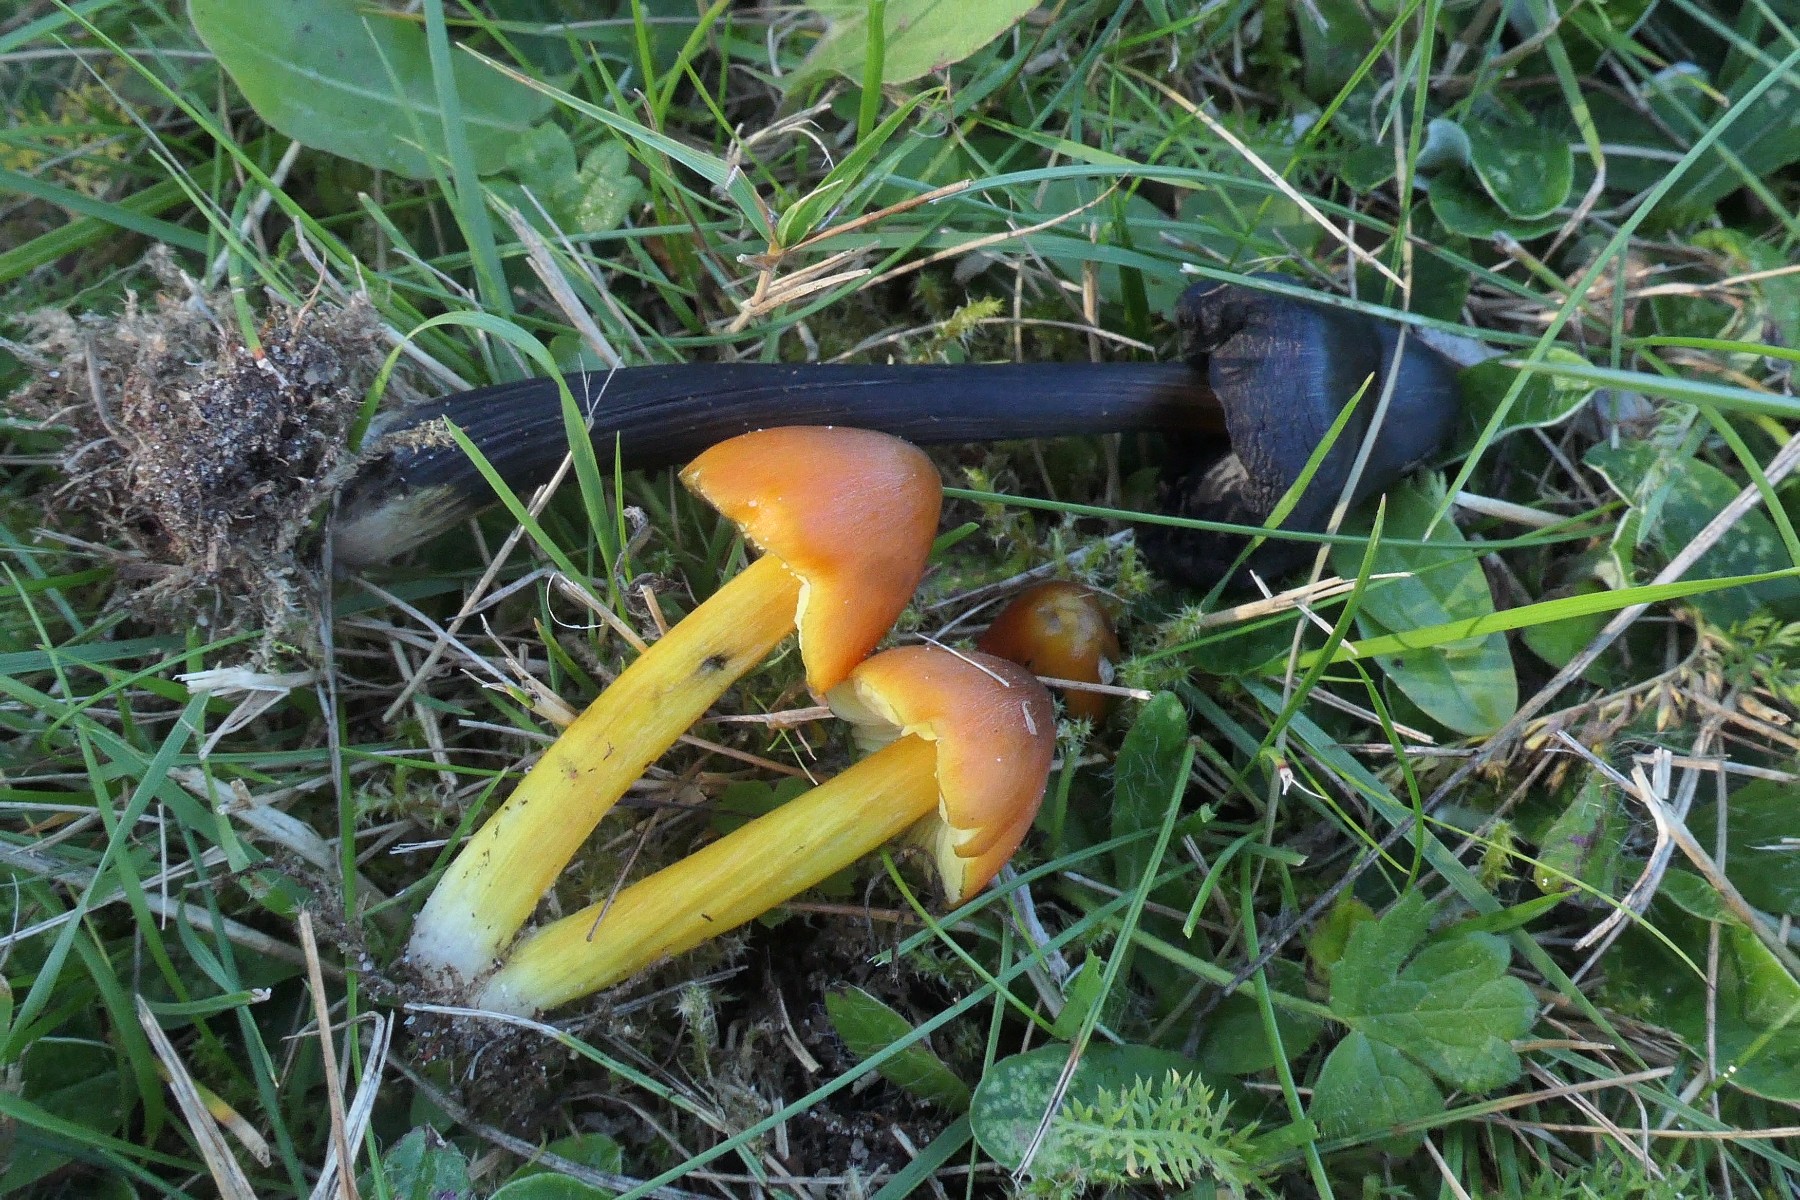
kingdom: Fungi
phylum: Basidiomycota
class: Agaricomycetes
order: Agaricales
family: Hygrophoraceae
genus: Hygrocybe
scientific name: Hygrocybe conica
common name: kegle-vokshat
